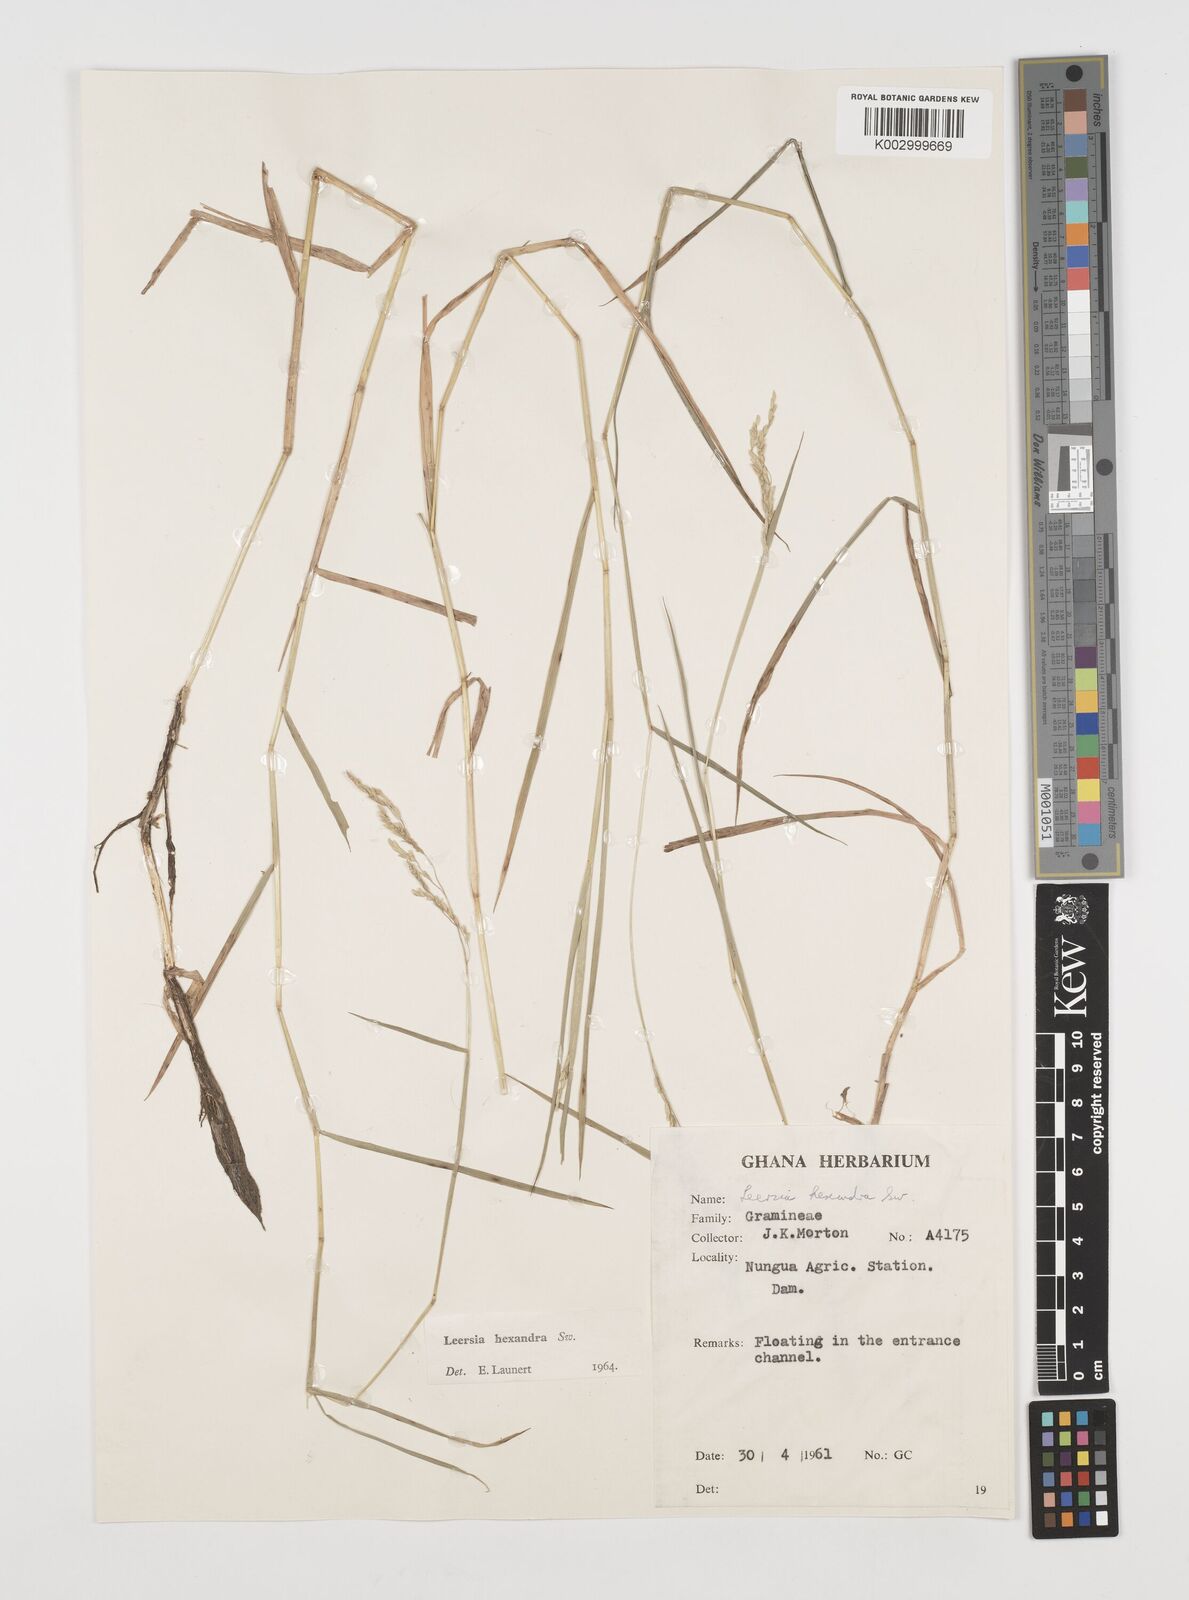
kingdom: Plantae
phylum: Tracheophyta
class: Liliopsida
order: Poales
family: Poaceae
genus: Leersia
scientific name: Leersia hexandra
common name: Southern cut grass
